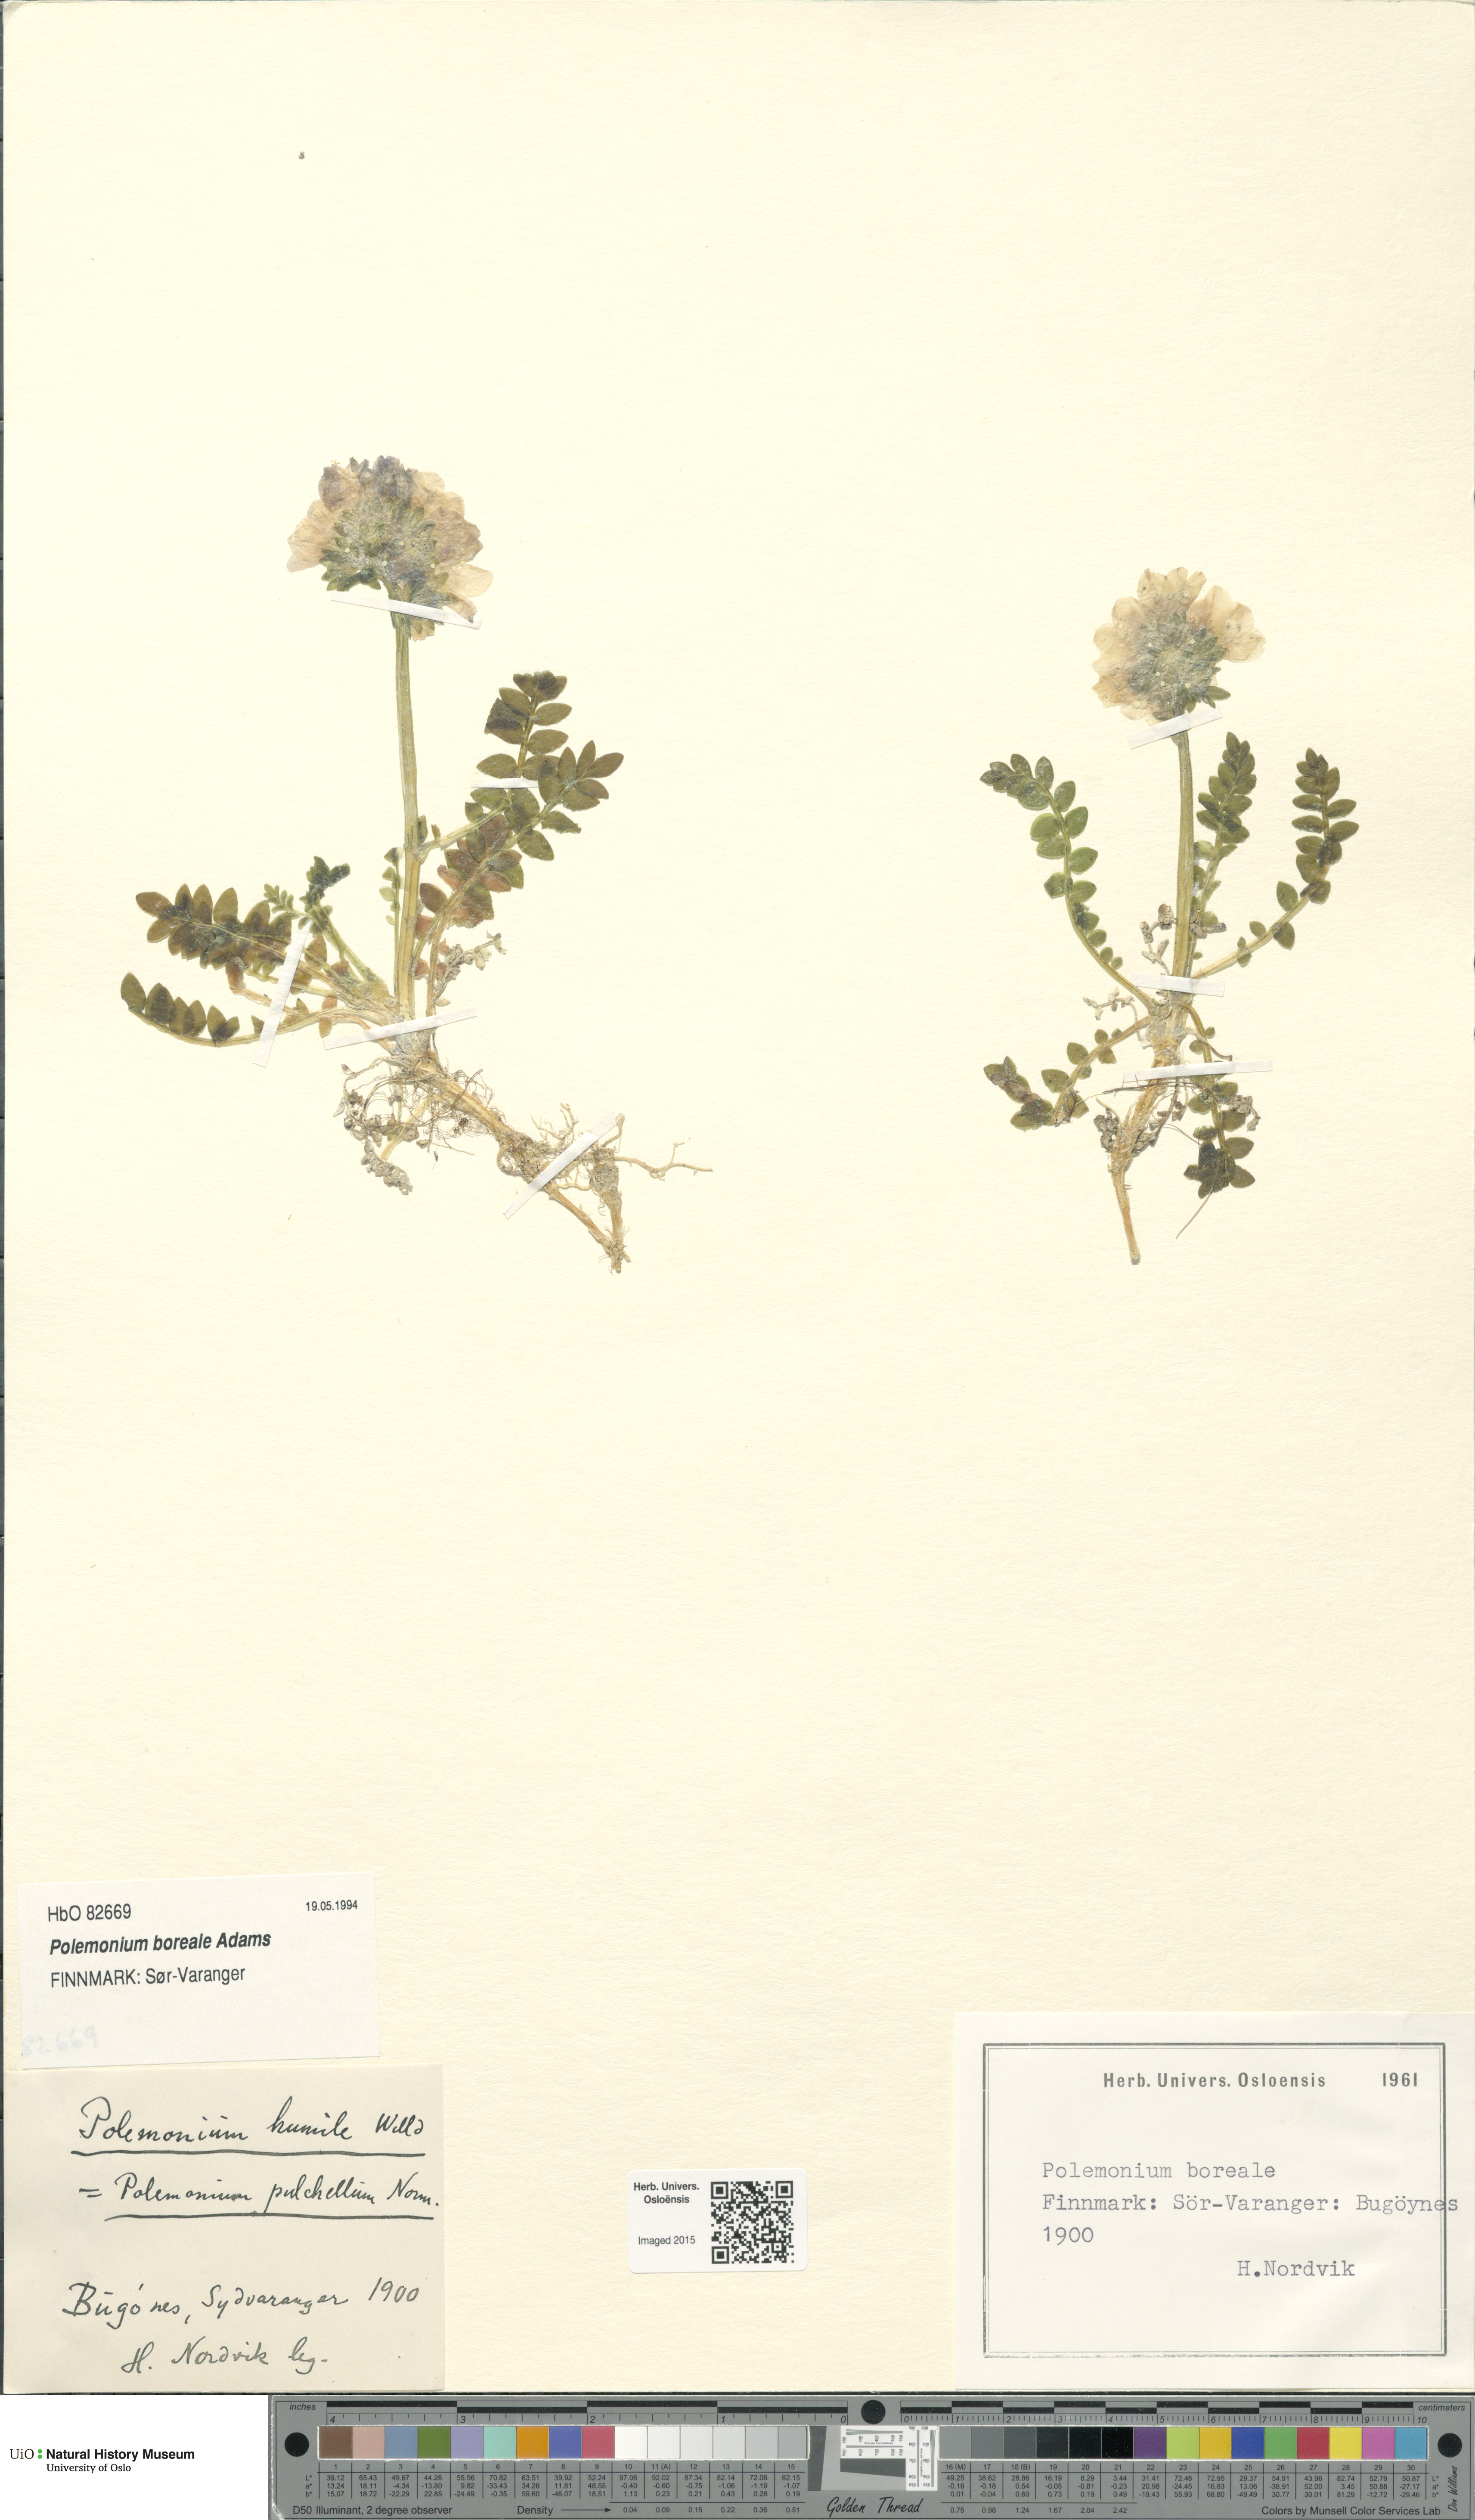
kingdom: Plantae
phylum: Tracheophyta
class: Magnoliopsida
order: Ericales
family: Polemoniaceae
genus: Polemonium
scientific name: Polemonium boreale
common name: Boreal jacob's-ladder
